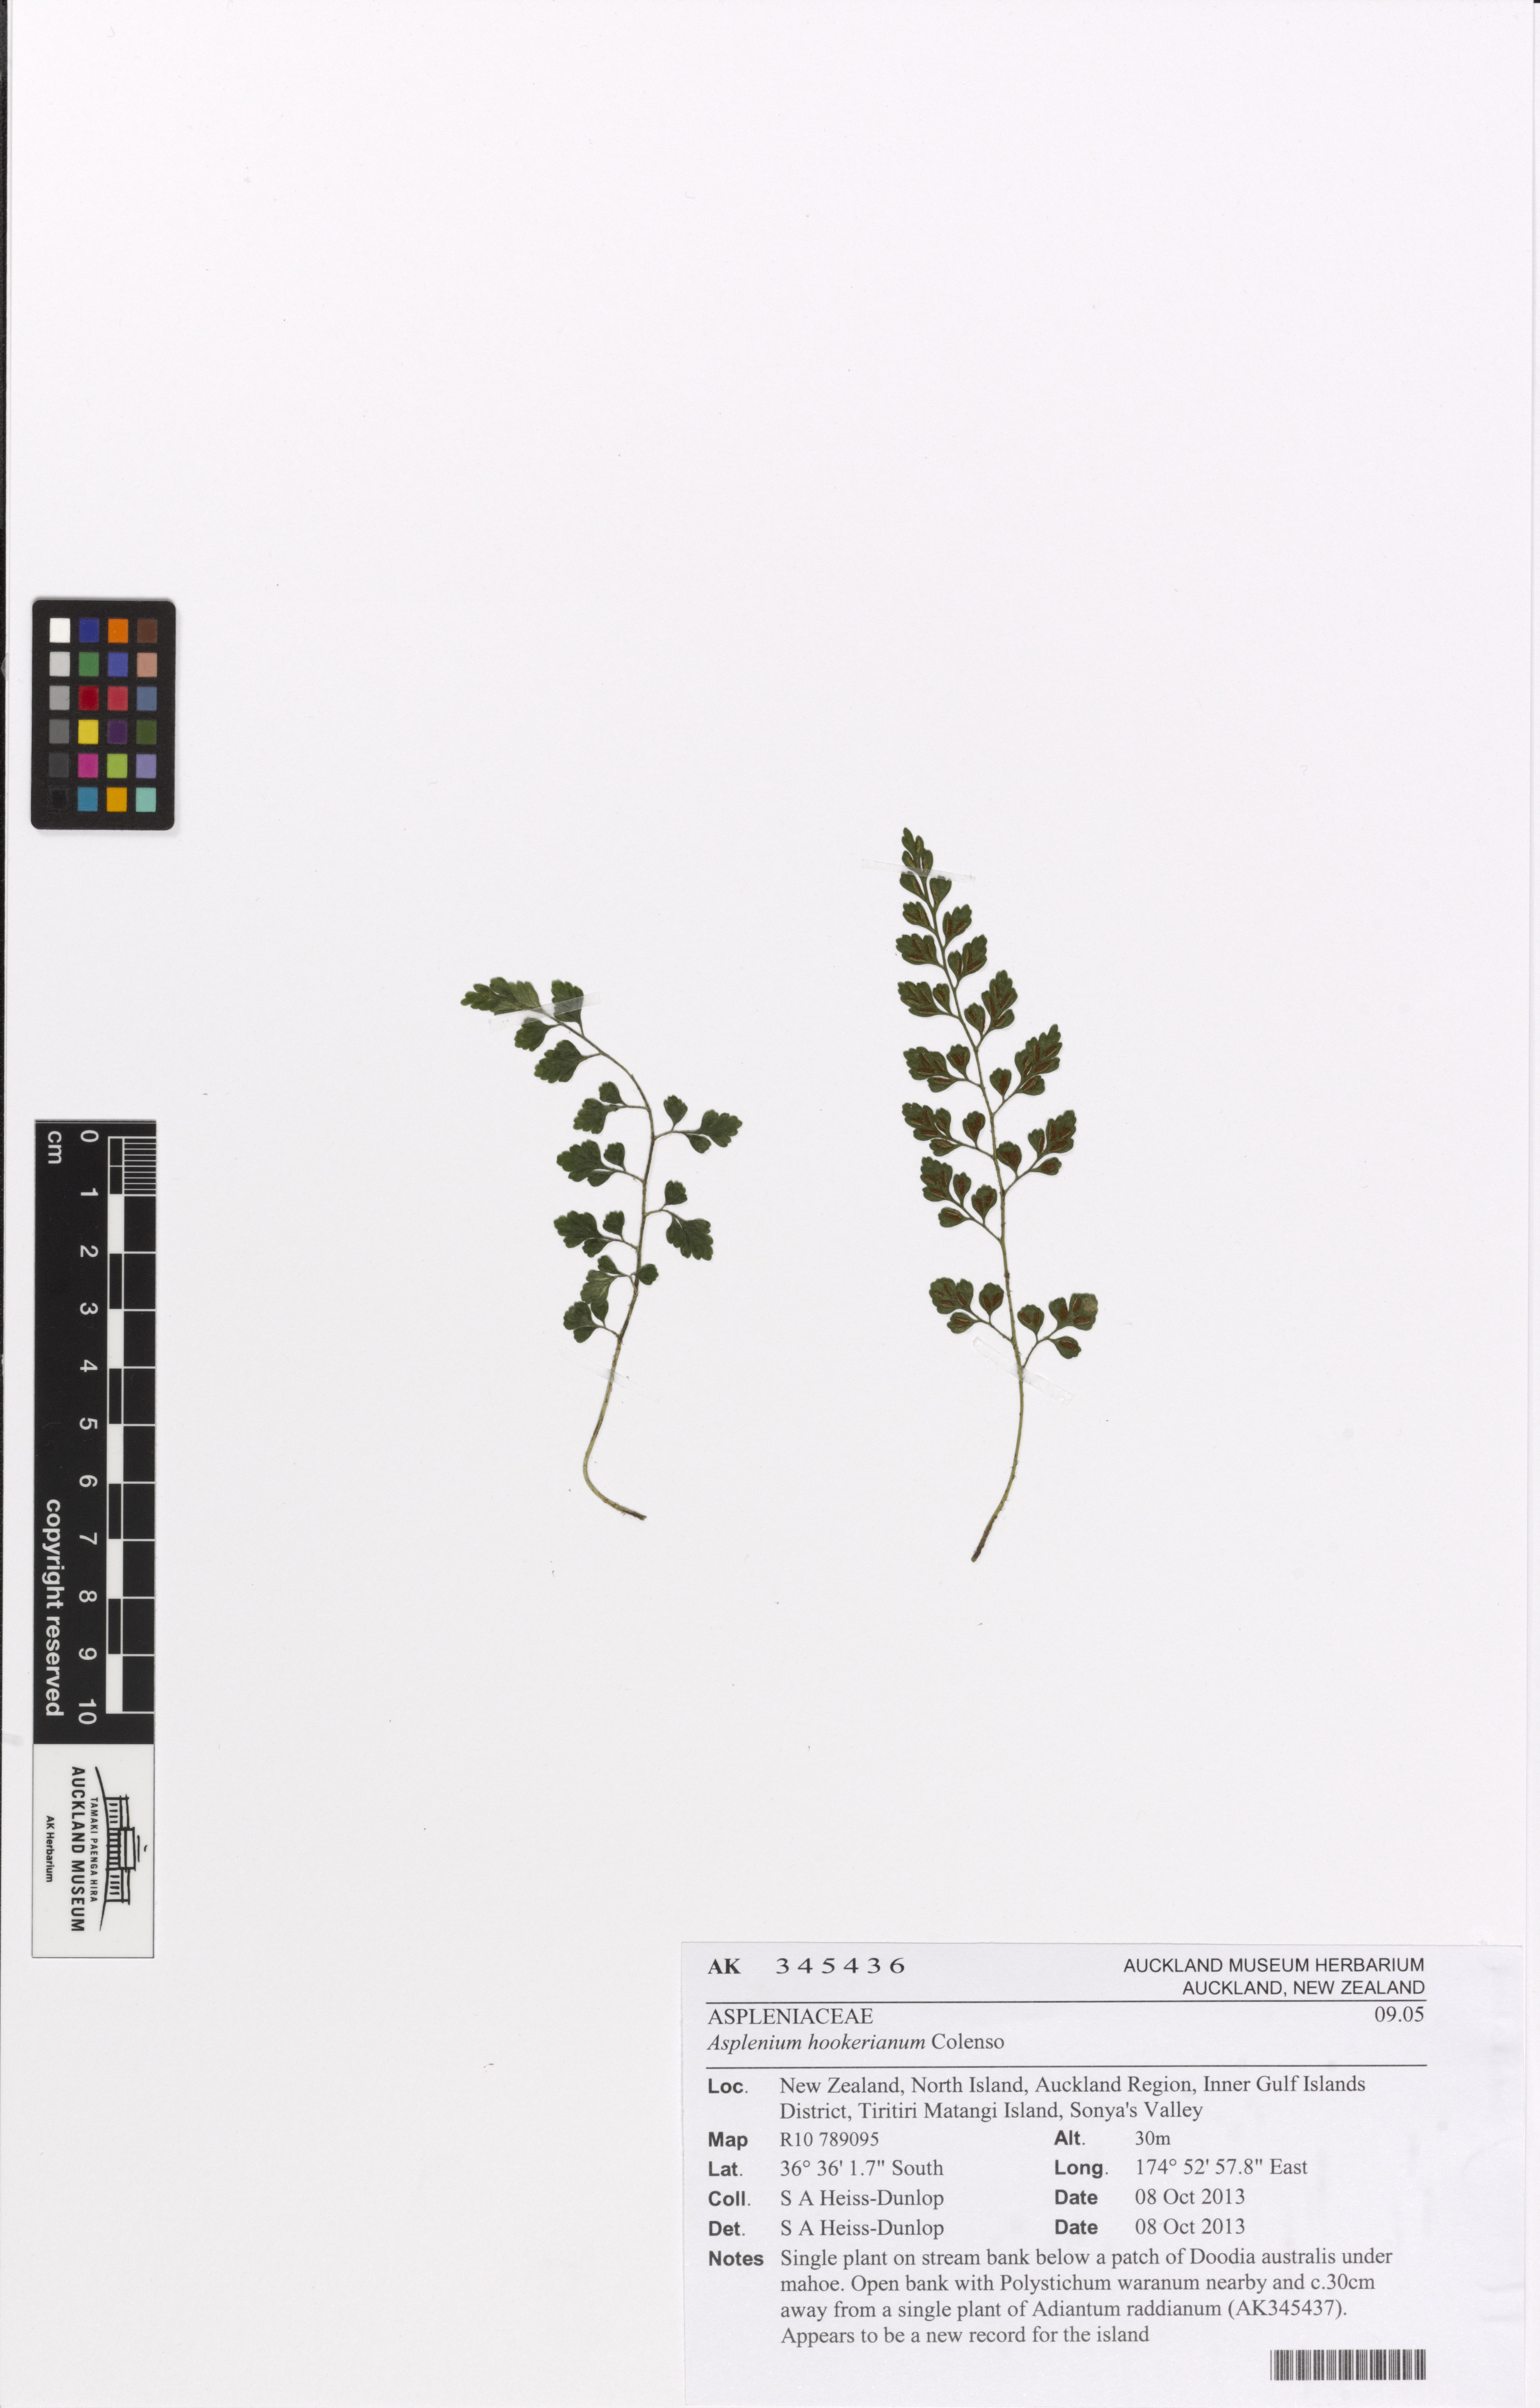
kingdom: Plantae
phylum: Tracheophyta
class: Polypodiopsida
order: Polypodiales
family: Aspleniaceae
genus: Asplenium
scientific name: Asplenium hookerianum
